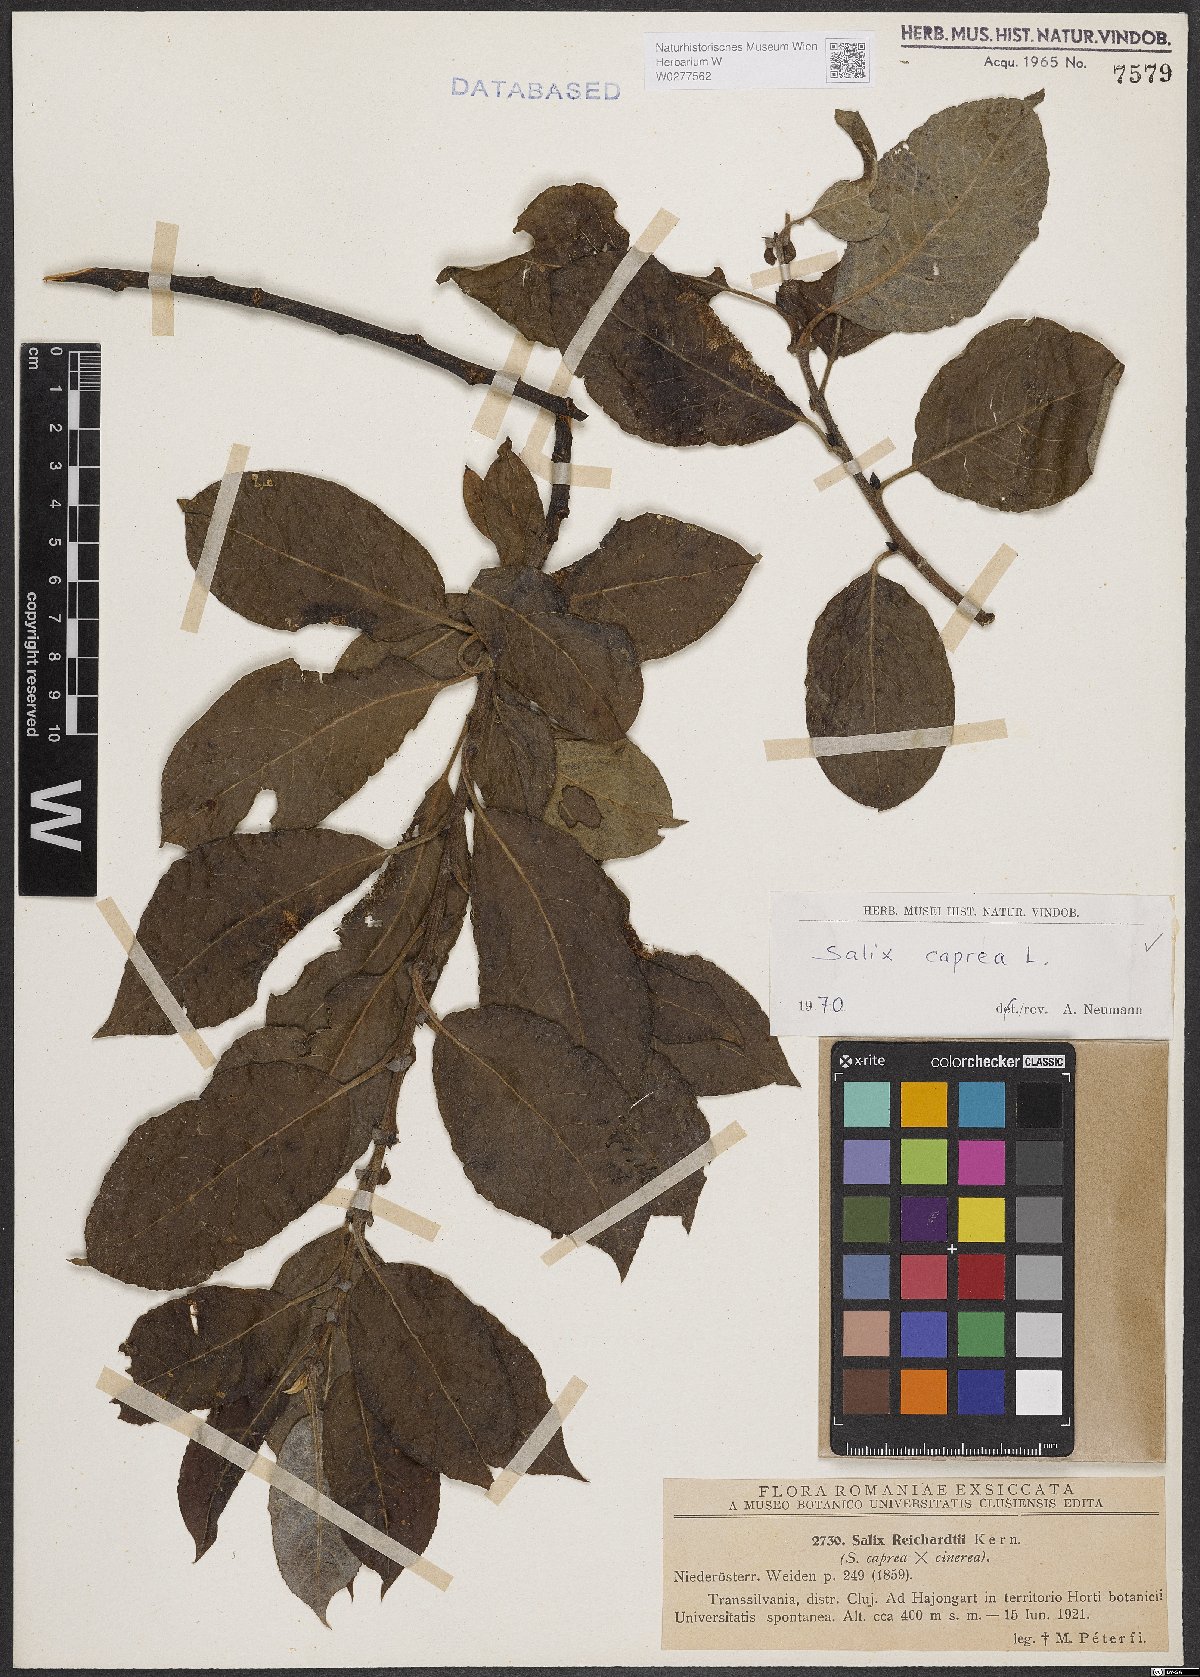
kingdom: Plantae
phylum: Tracheophyta
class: Magnoliopsida
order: Malpighiales
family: Salicaceae
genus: Salix
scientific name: Salix caprea
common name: Goat willow
